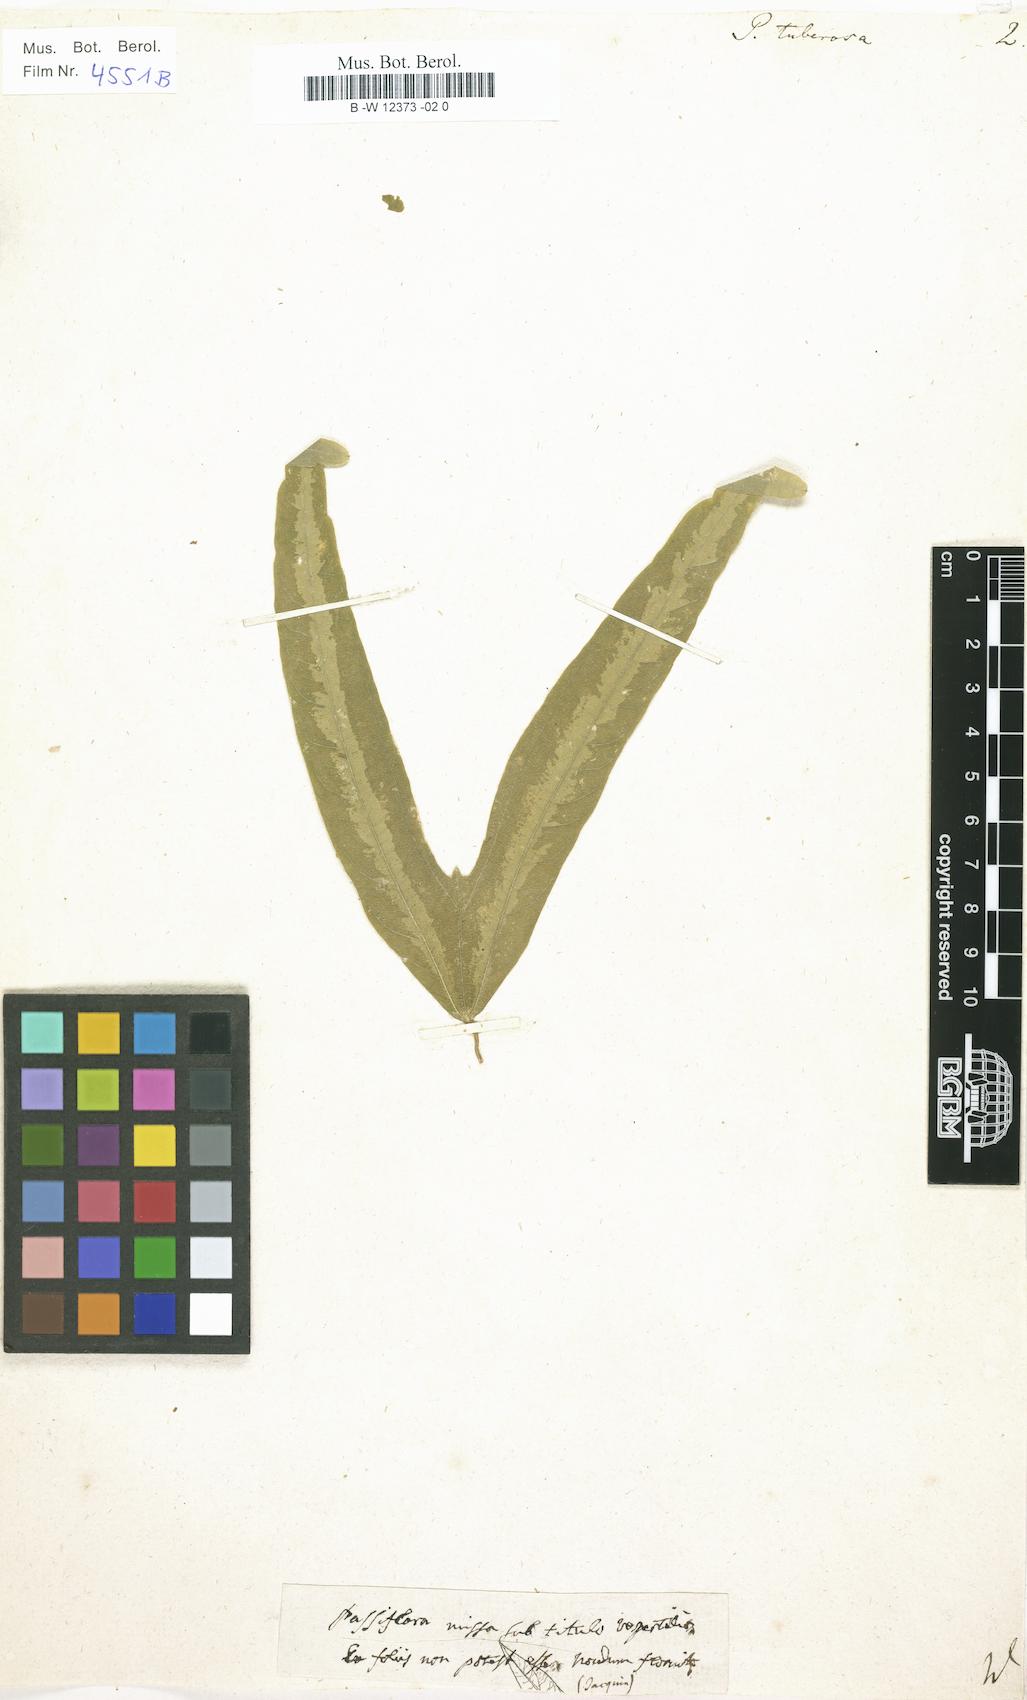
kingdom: Plantae
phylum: Tracheophyta
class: Magnoliopsida
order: Malpighiales
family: Passifloraceae
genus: Passiflora
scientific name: Passiflora tuberosa
